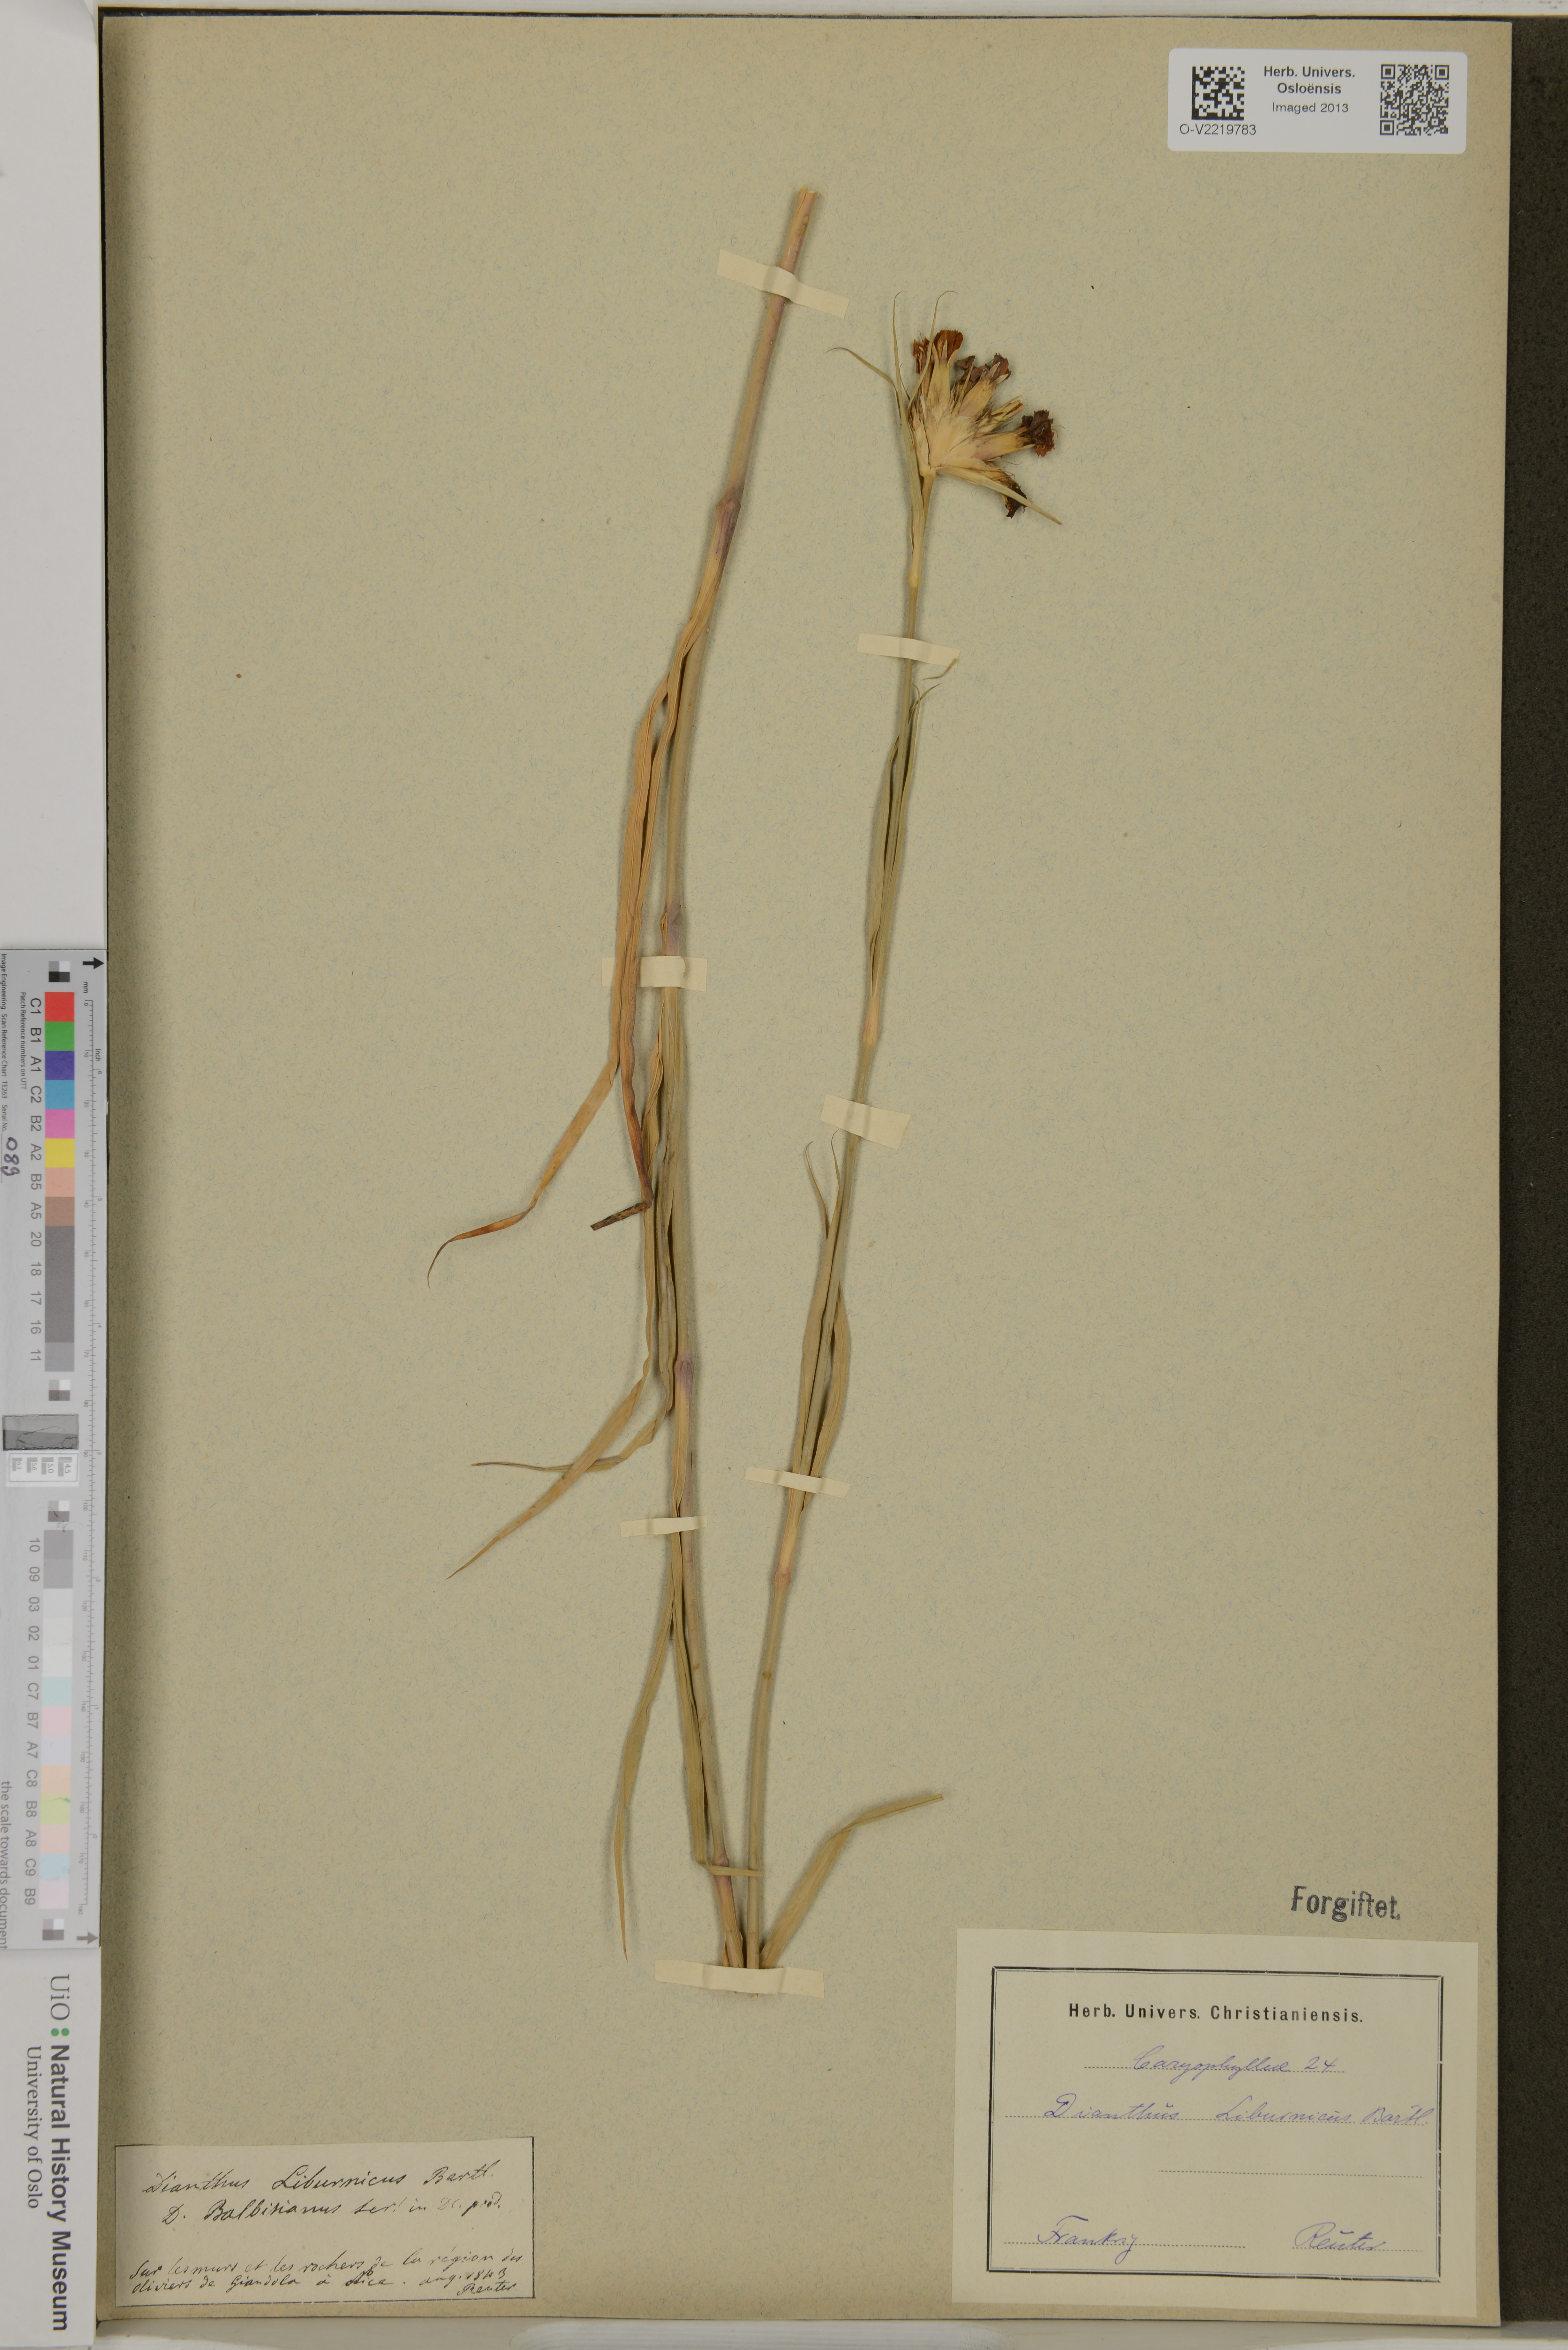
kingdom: Plantae
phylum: Tracheophyta
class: Magnoliopsida
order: Caryophyllales
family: Caryophyllaceae
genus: Dianthus
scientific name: Dianthus balbisii
